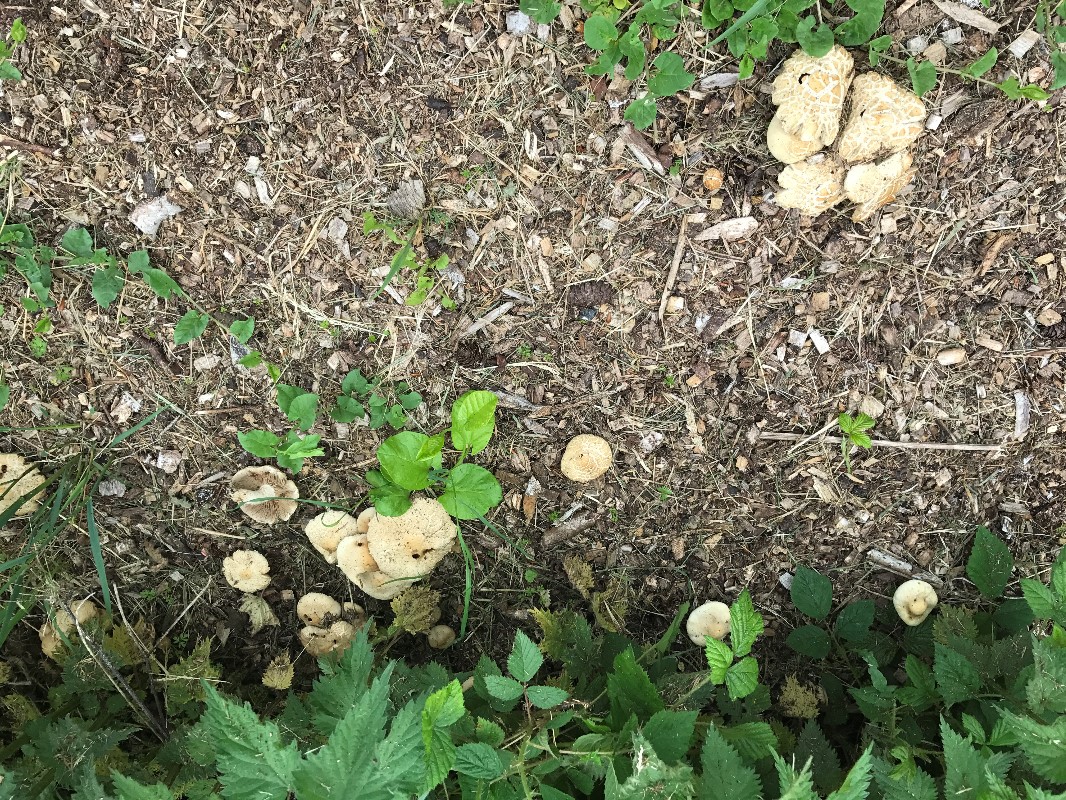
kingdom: Fungi
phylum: Basidiomycota
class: Agaricomycetes
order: Agaricales
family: Strophariaceae
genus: Agrocybe
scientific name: Agrocybe praecox
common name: tidlig agerhat
